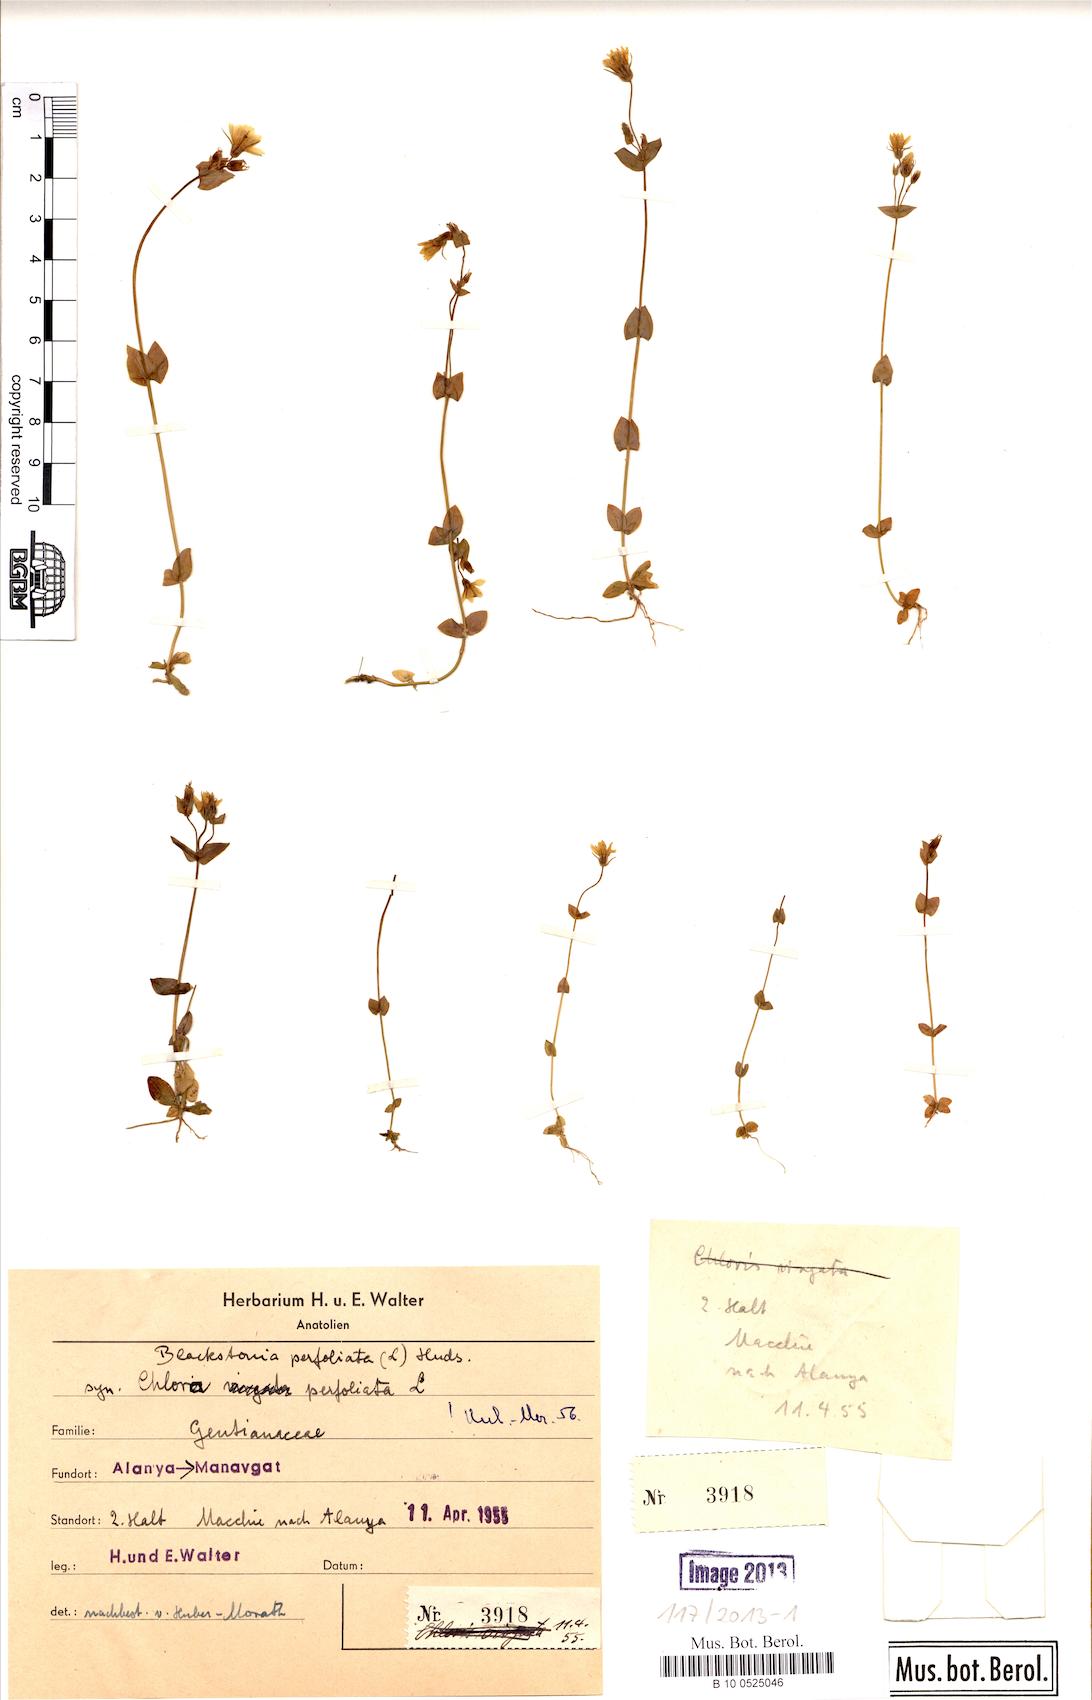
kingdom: Plantae
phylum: Tracheophyta
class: Magnoliopsida
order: Gentianales
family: Gentianaceae
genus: Blackstonia
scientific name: Blackstonia perfoliata
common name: Yellow-wort
